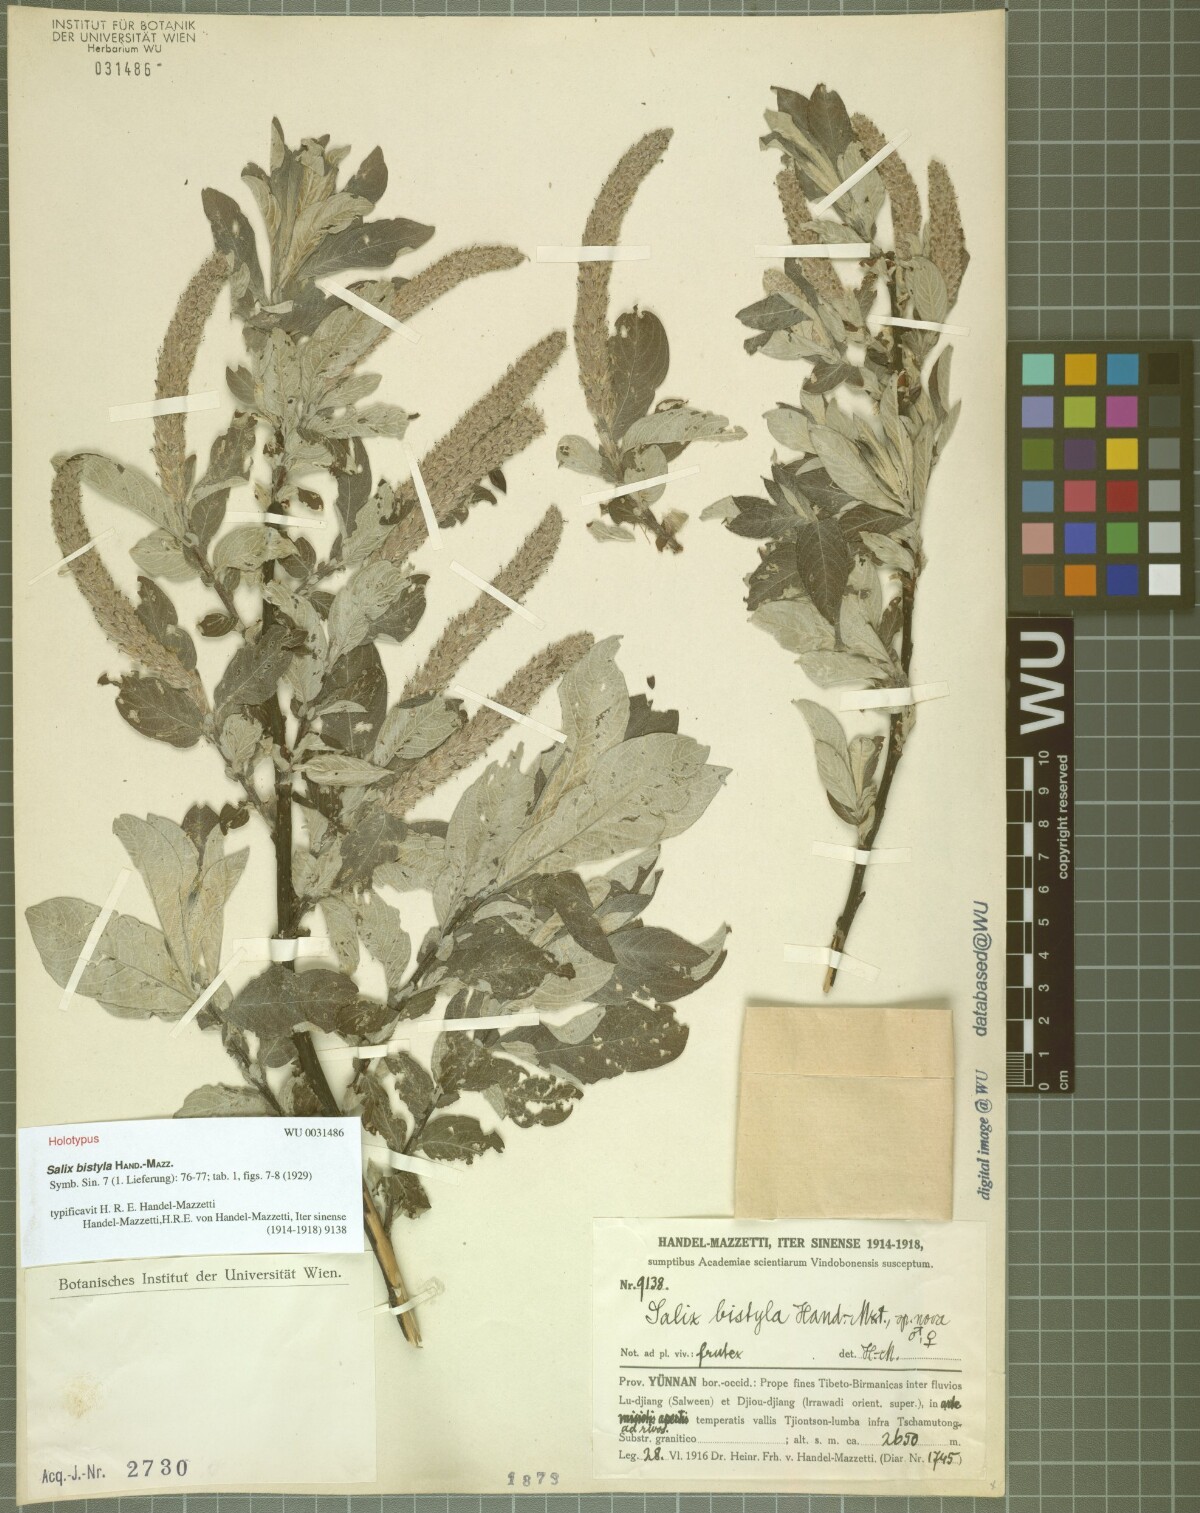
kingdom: Plantae
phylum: Tracheophyta
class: Magnoliopsida
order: Malpighiales
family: Salicaceae
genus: Salix
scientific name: Salix bistyla
